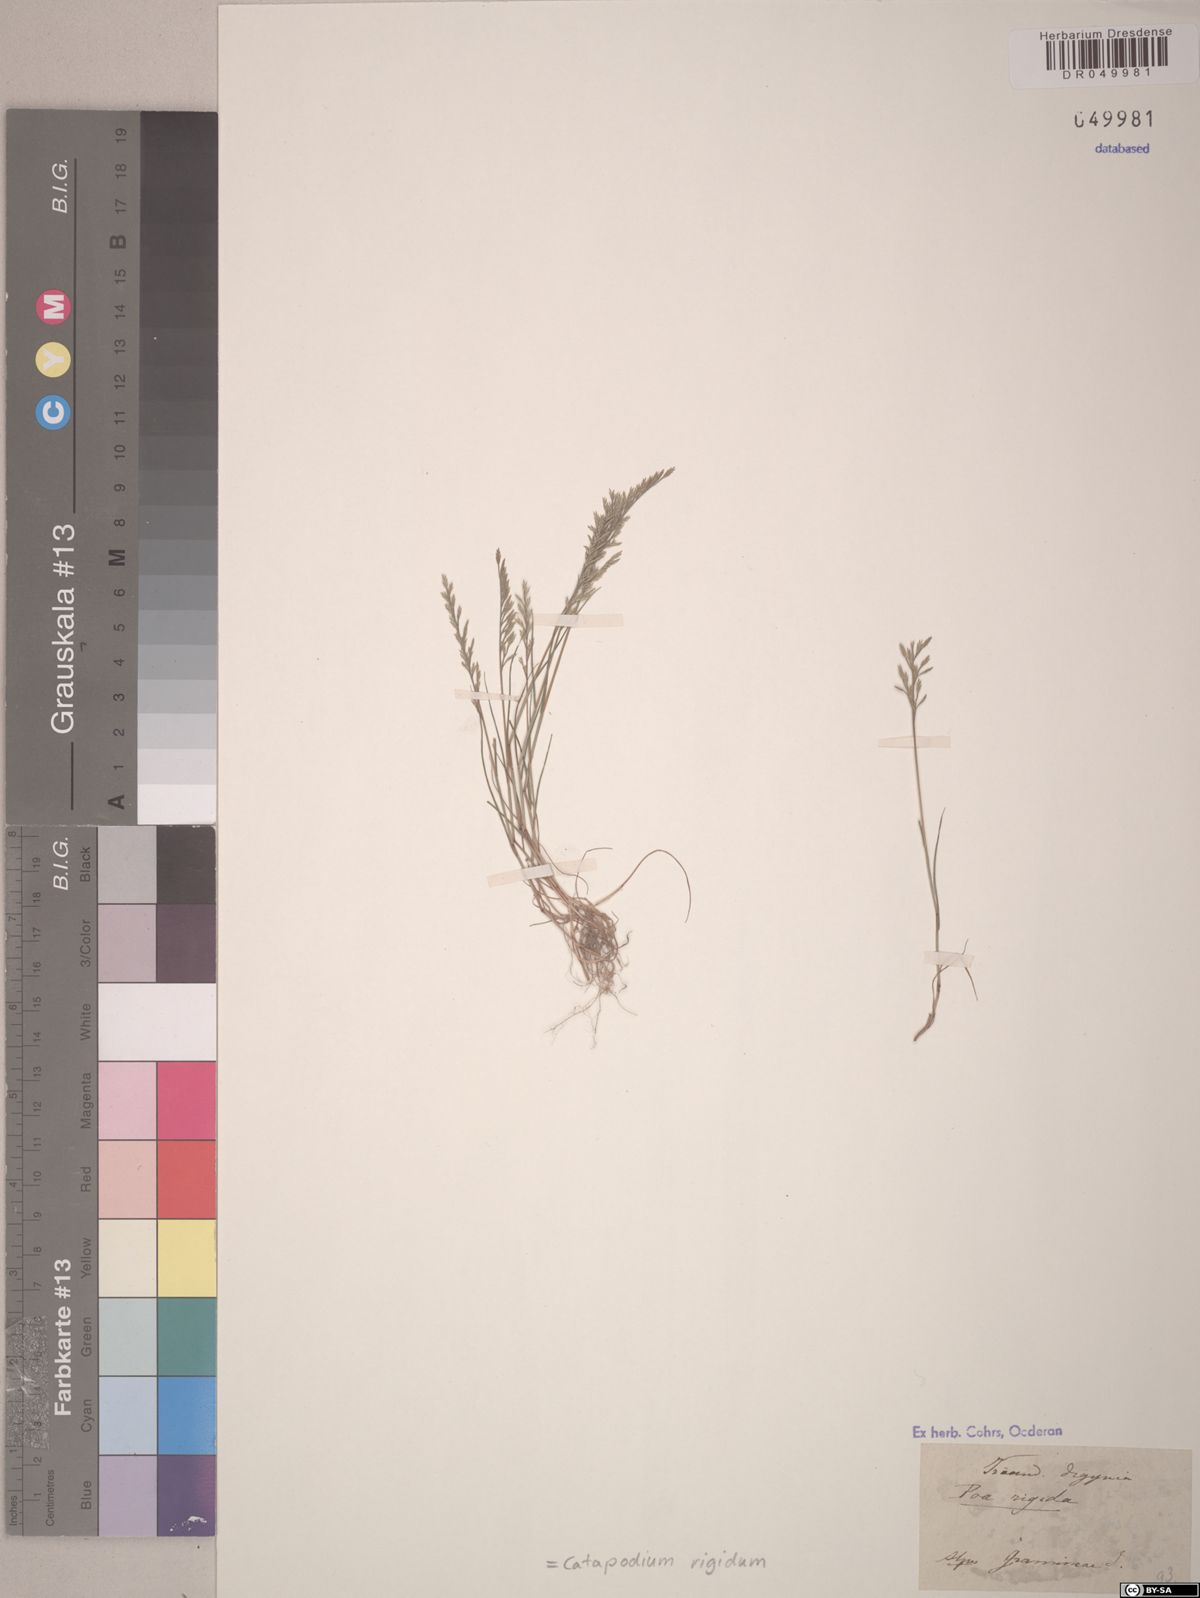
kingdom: Plantae
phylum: Tracheophyta
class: Liliopsida
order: Poales
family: Poaceae
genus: Catapodium
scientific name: Catapodium rigidum
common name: Fern-grass
